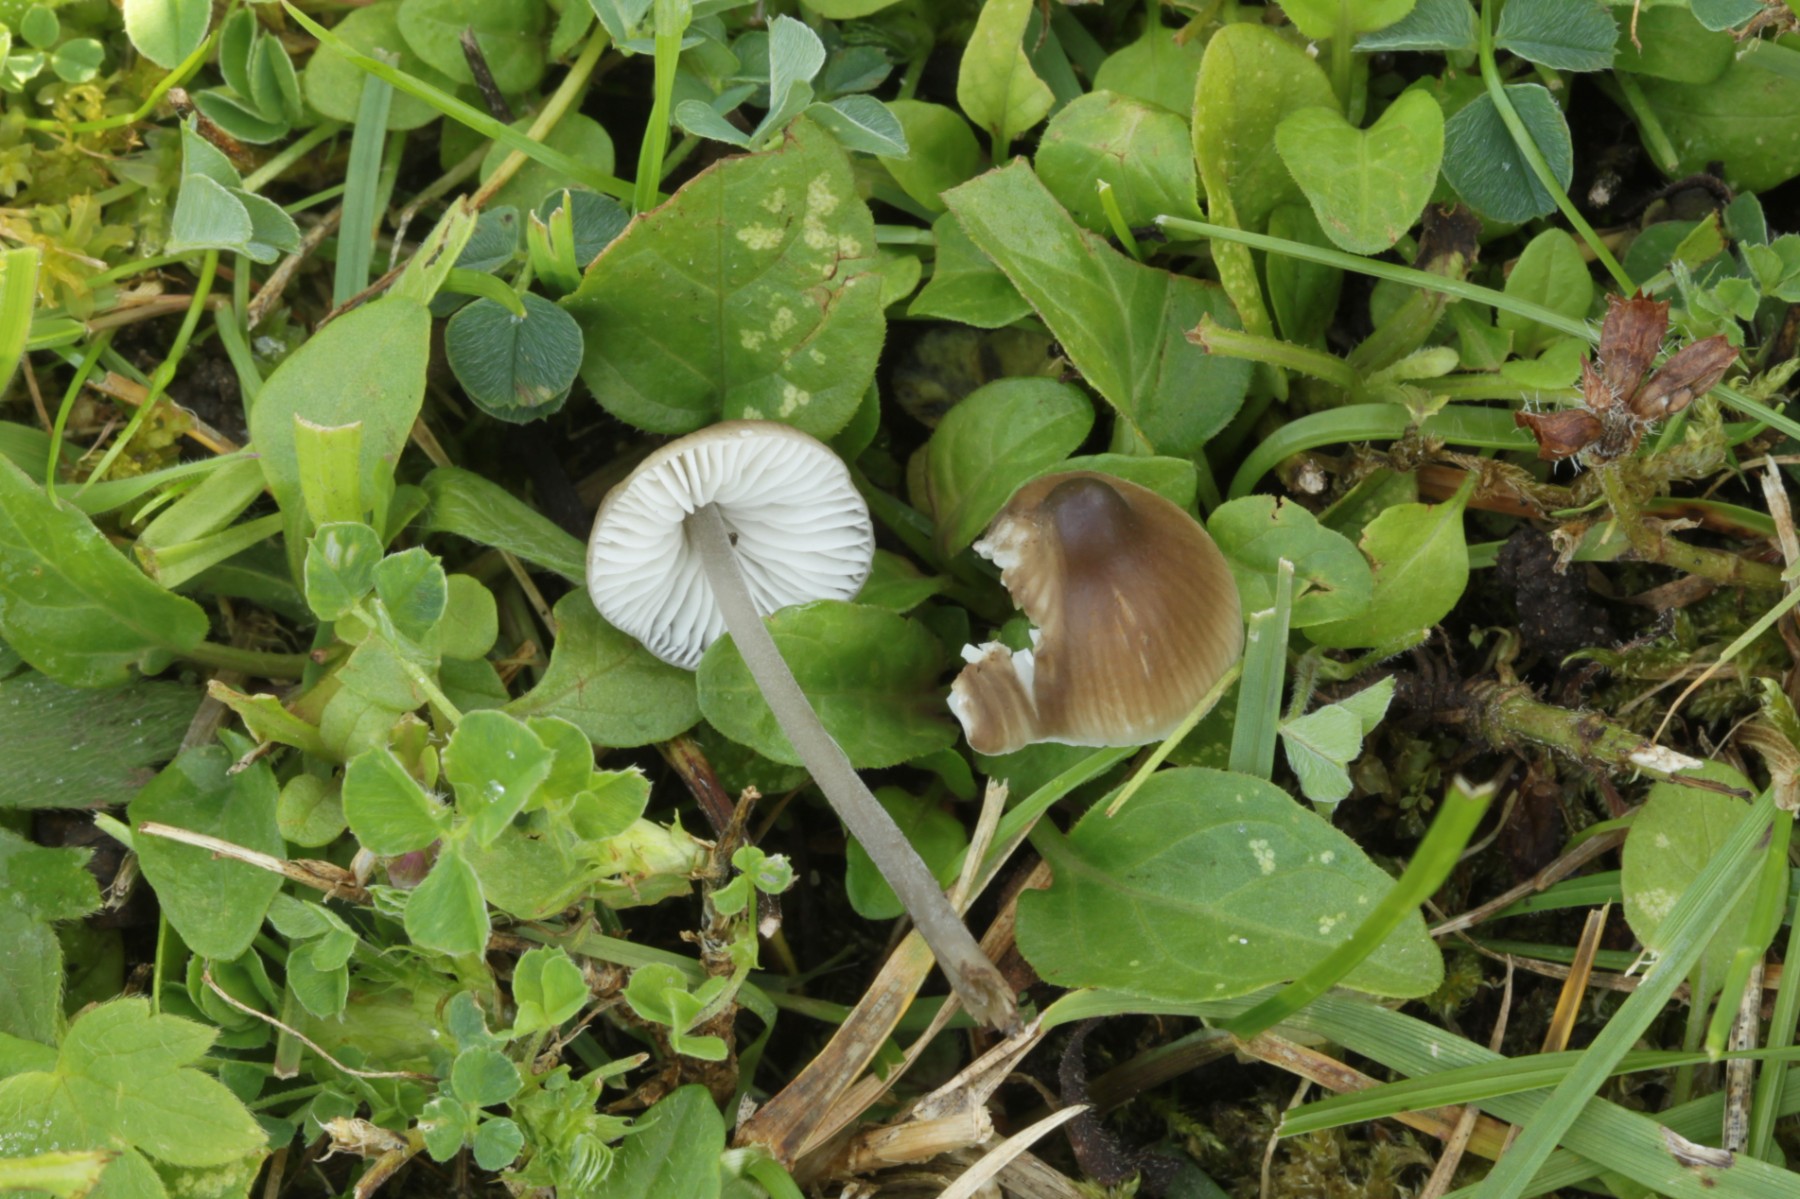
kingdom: Fungi
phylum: Basidiomycota
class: Agaricomycetes
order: Agaricales
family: Tricholomataceae
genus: Mycenella
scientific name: Mycenella
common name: dughat
